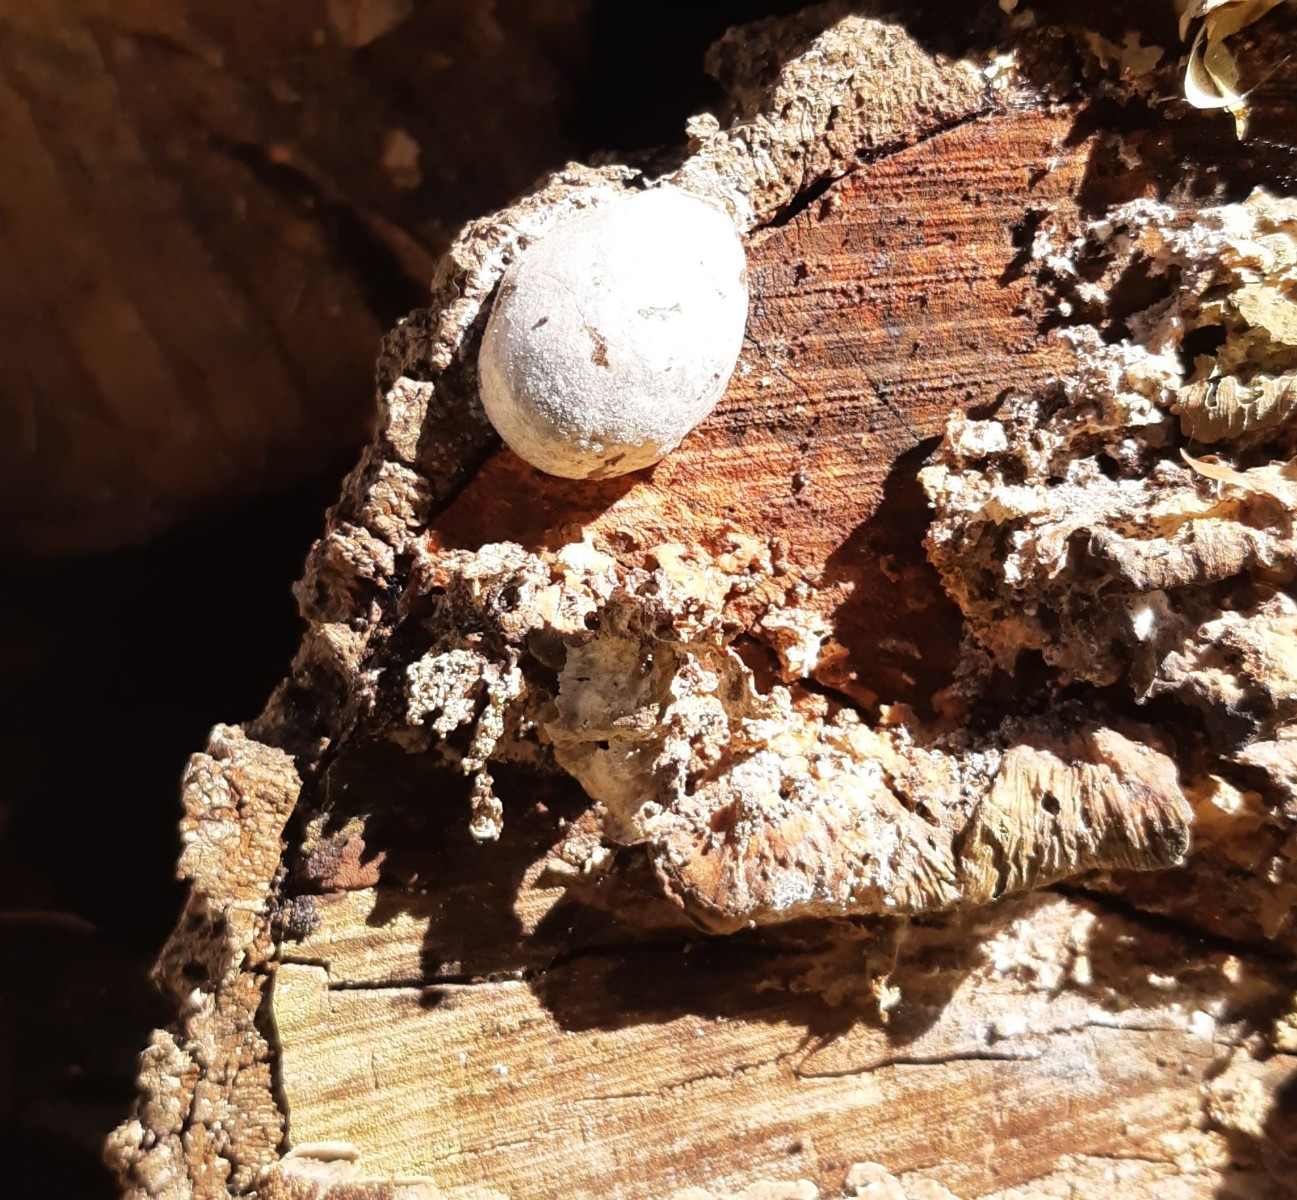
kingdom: Protozoa
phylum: Mycetozoa
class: Myxomycetes
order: Cribrariales
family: Tubiferaceae
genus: Reticularia
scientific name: Reticularia lycoperdon
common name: skinnende støvpude
